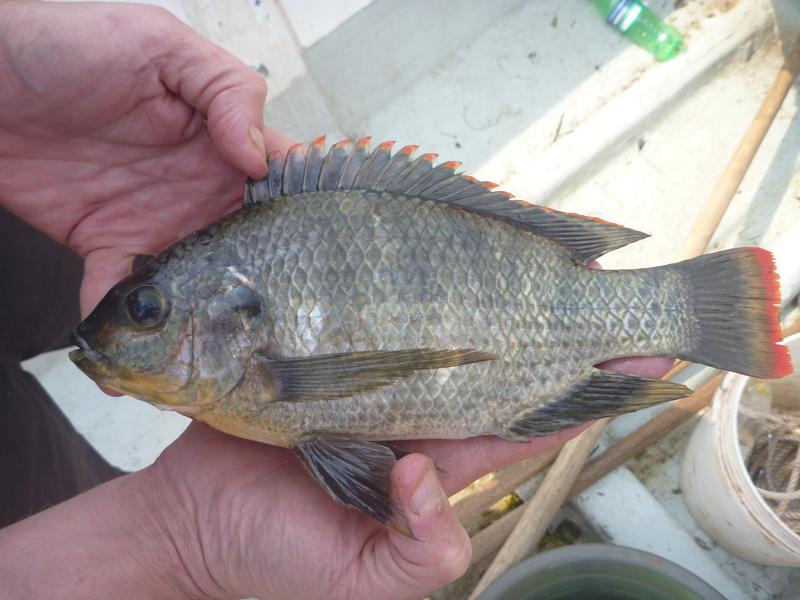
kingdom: Animalia
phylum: Chordata
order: Perciformes
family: Cichlidae
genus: Oreochromis
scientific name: Oreochromis variabilis
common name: Victoria tilapia
